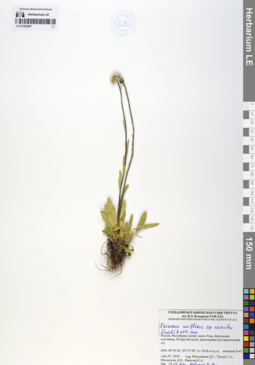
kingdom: Plantae
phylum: Tracheophyta
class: Magnoliopsida
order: Asterales
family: Asteraceae
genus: Erigeron
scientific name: Erigeron eriocalyx
